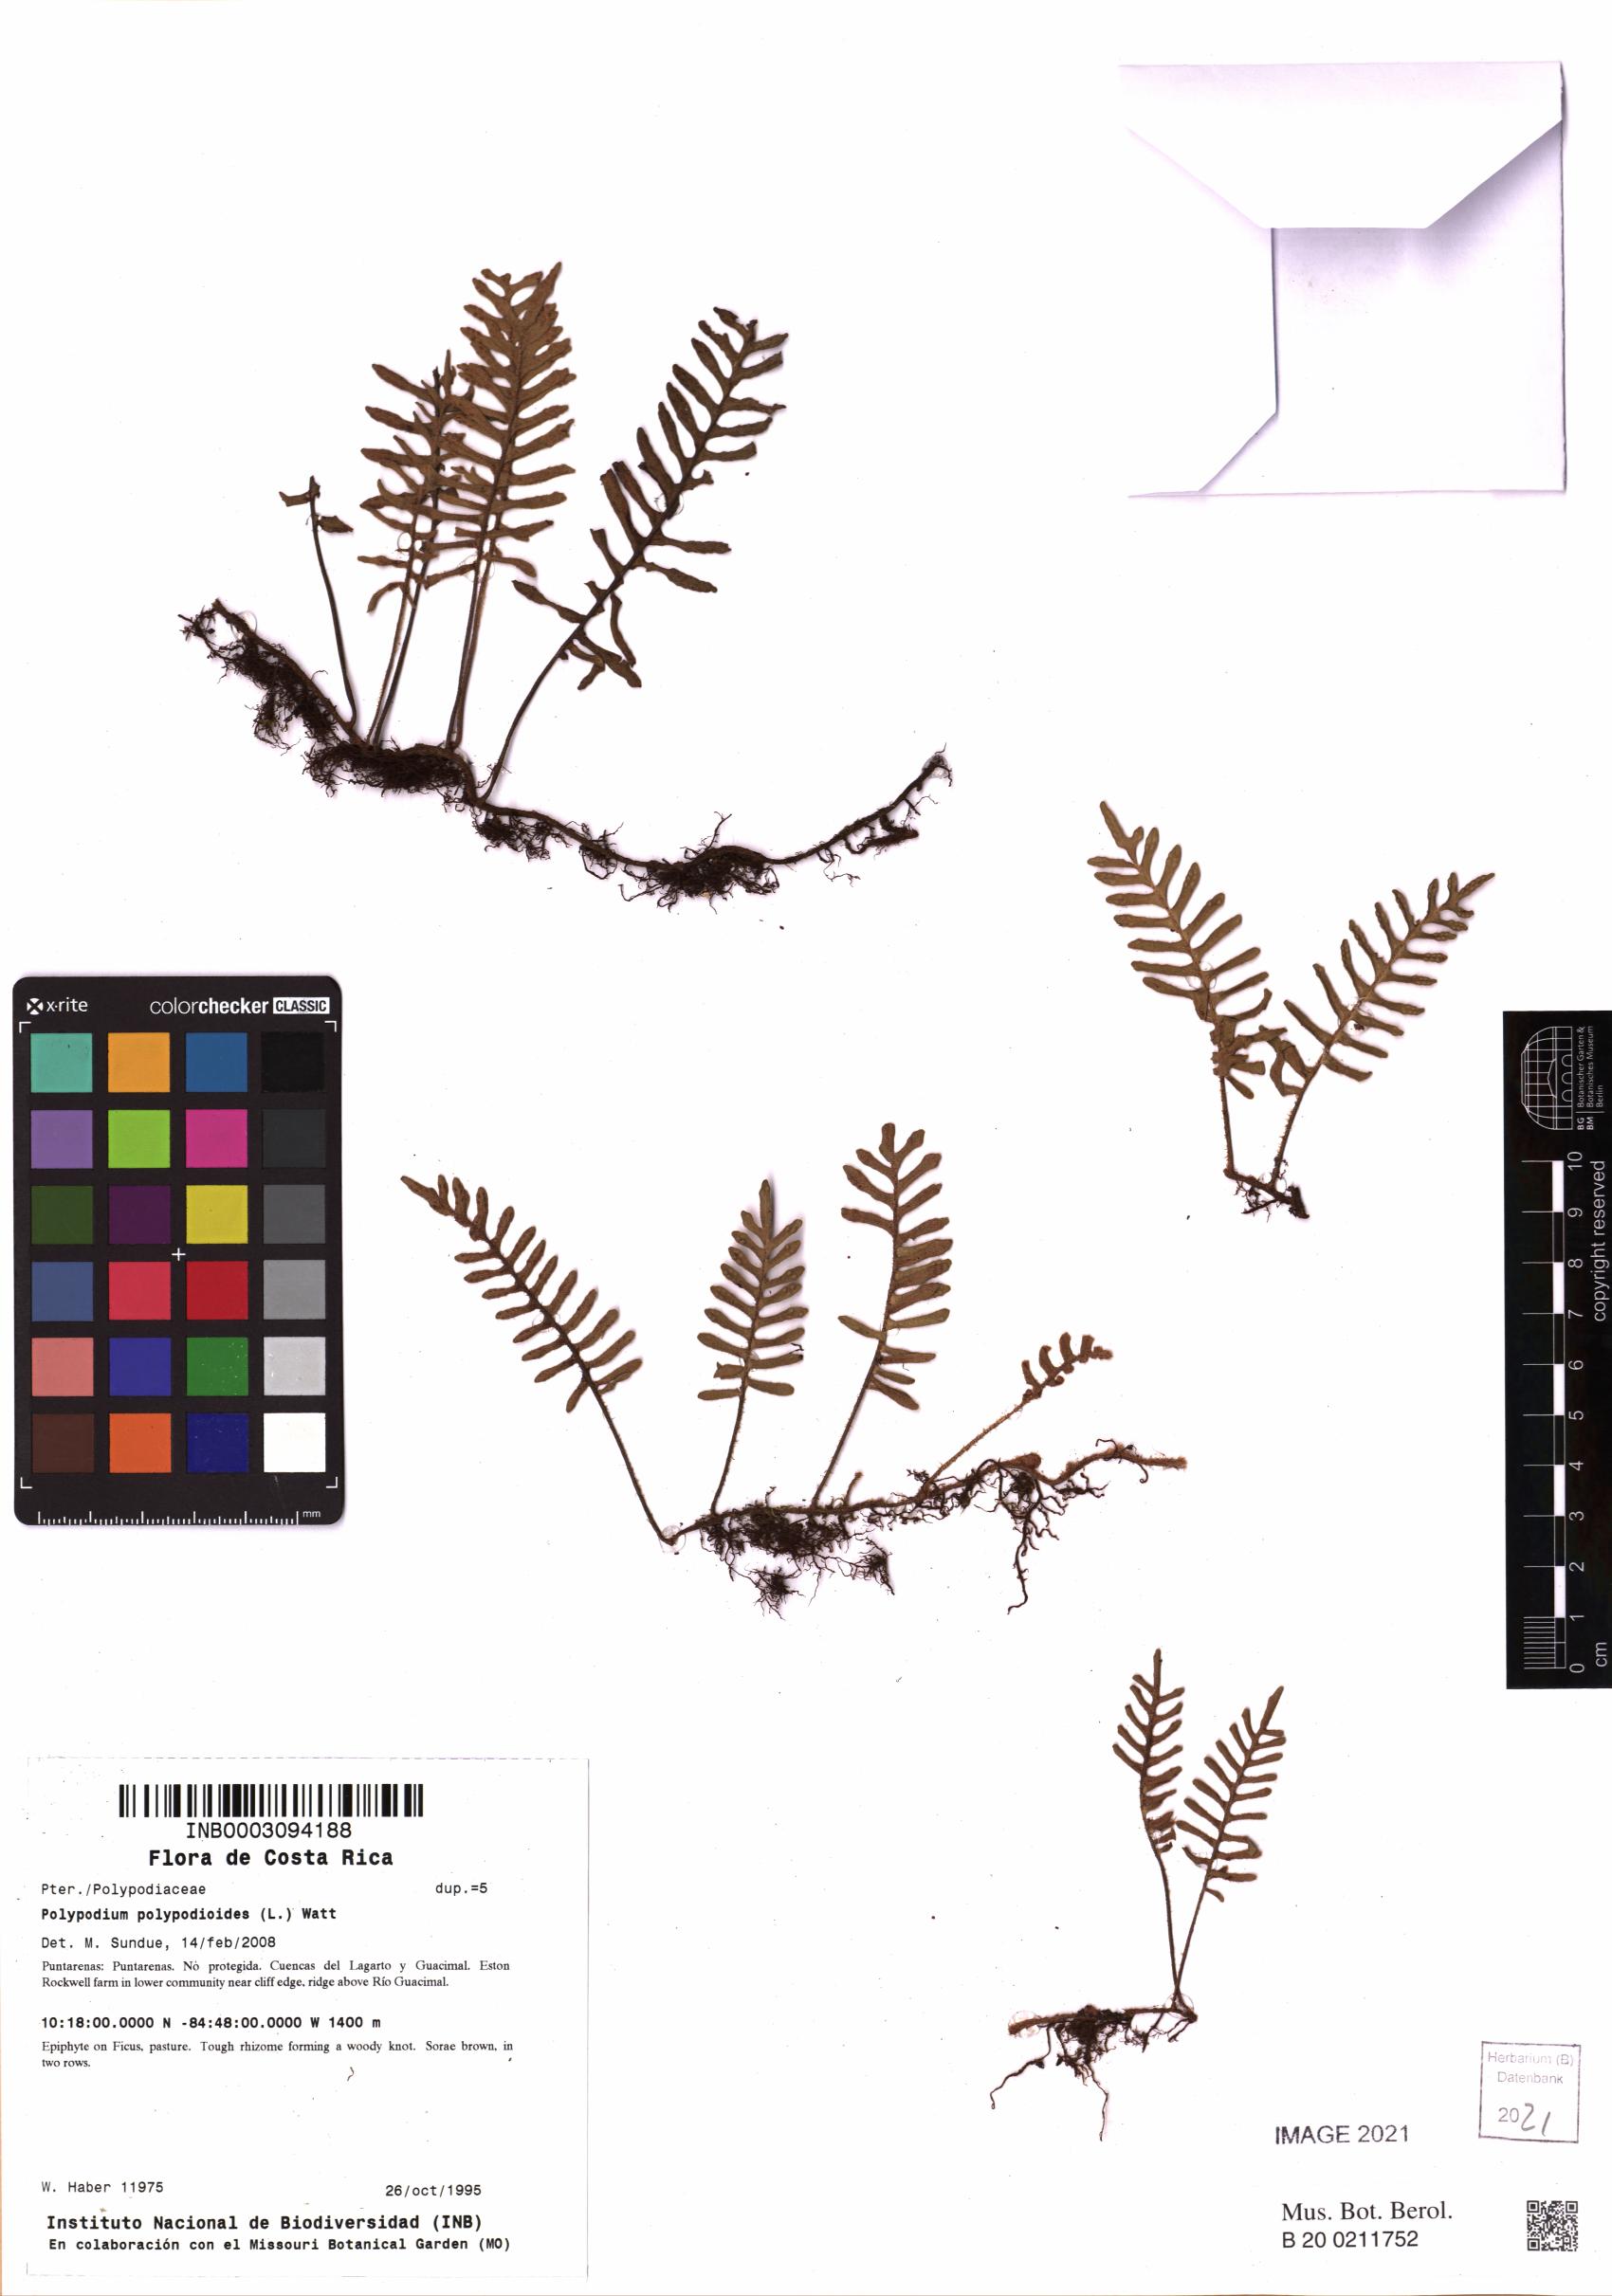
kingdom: Plantae
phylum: Tracheophyta
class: Polypodiopsida
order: Polypodiales
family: Polypodiaceae
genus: Pleopeltis
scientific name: Pleopeltis polypodioides
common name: Resurrection fern
